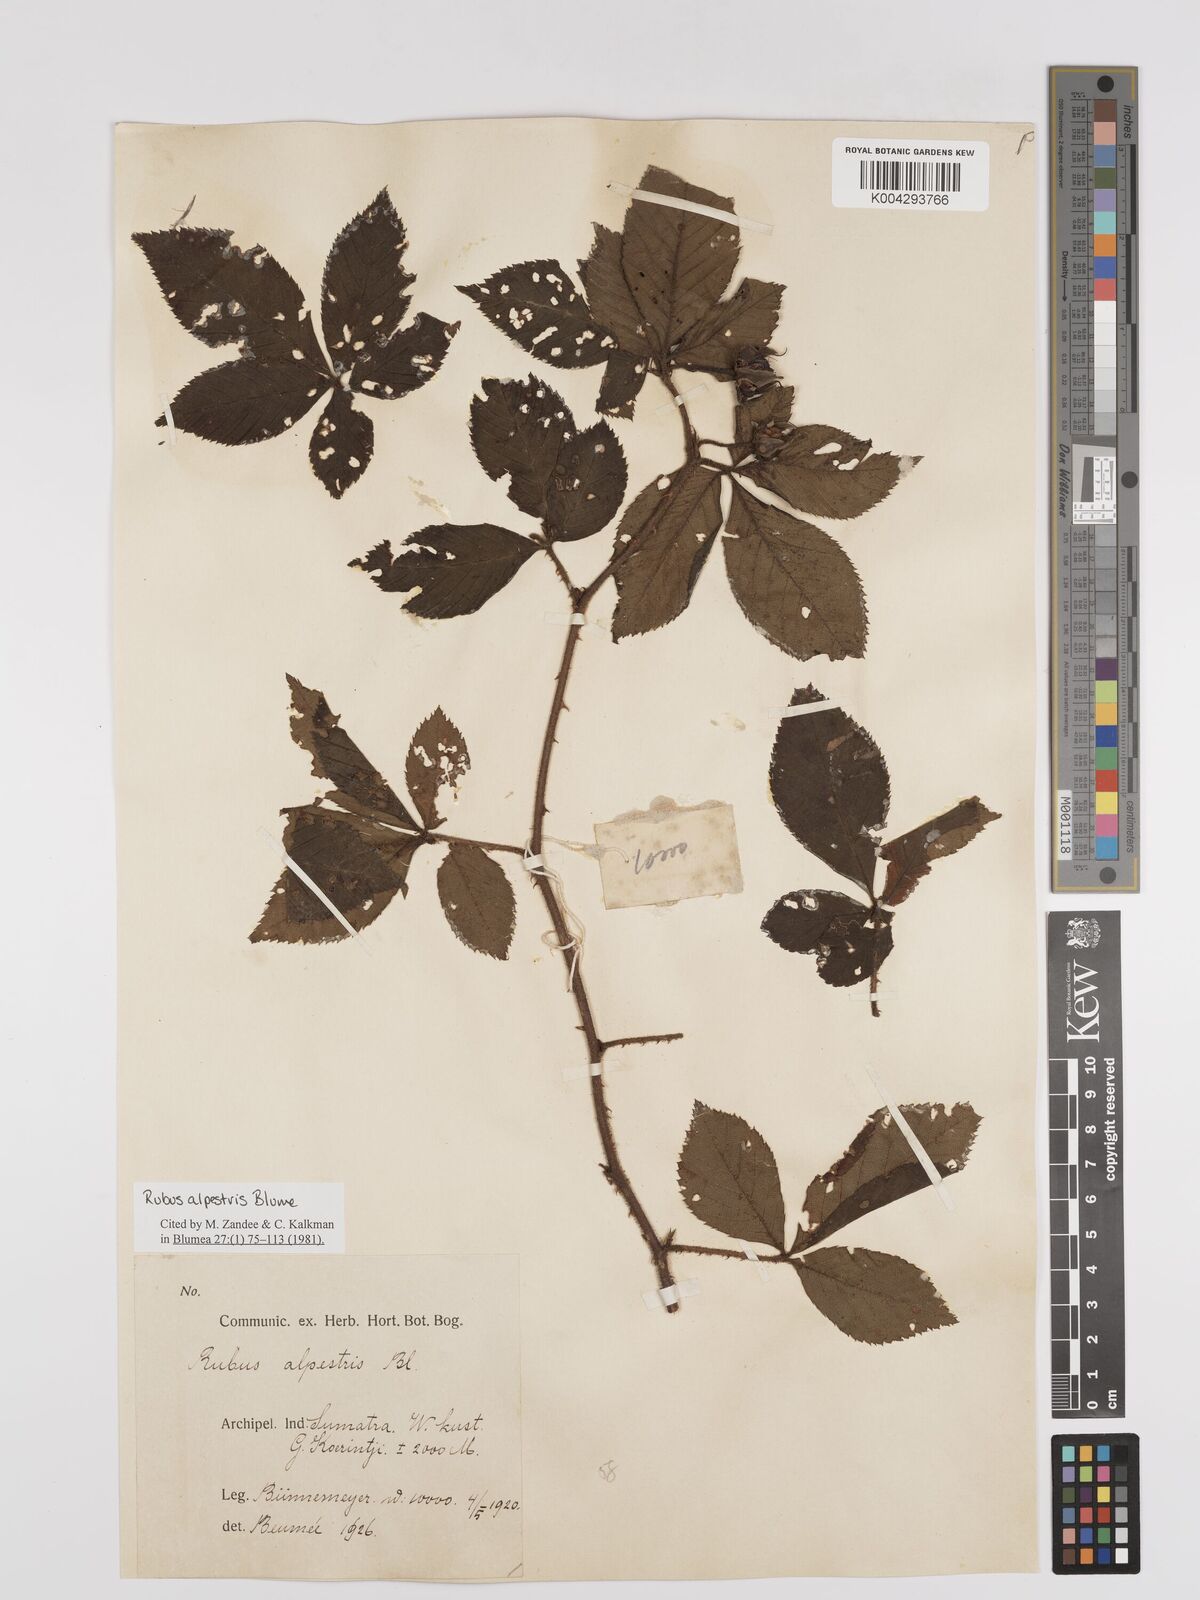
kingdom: Plantae
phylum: Tracheophyta
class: Magnoliopsida
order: Rosales
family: Rosaceae
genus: Rubus
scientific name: Rubus alpestris
